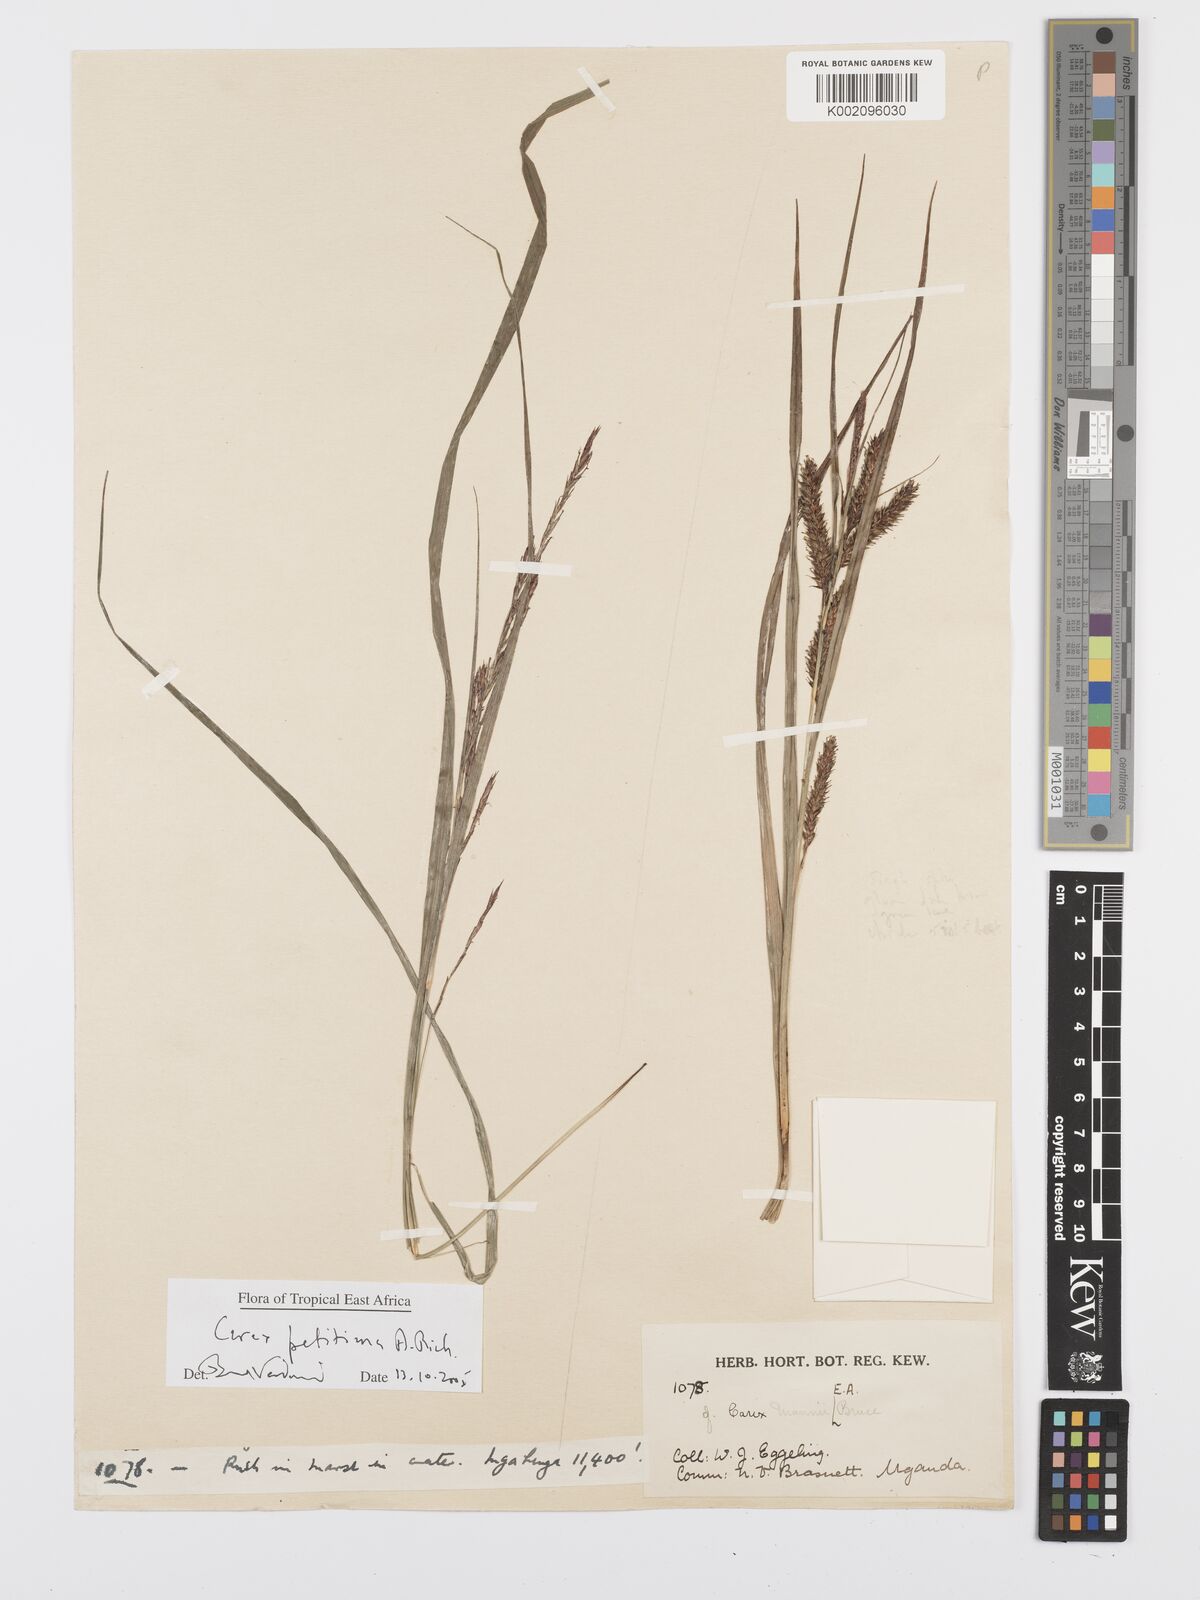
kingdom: Plantae
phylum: Tracheophyta
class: Liliopsida
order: Poales
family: Cyperaceae
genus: Carex
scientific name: Carex mannii
